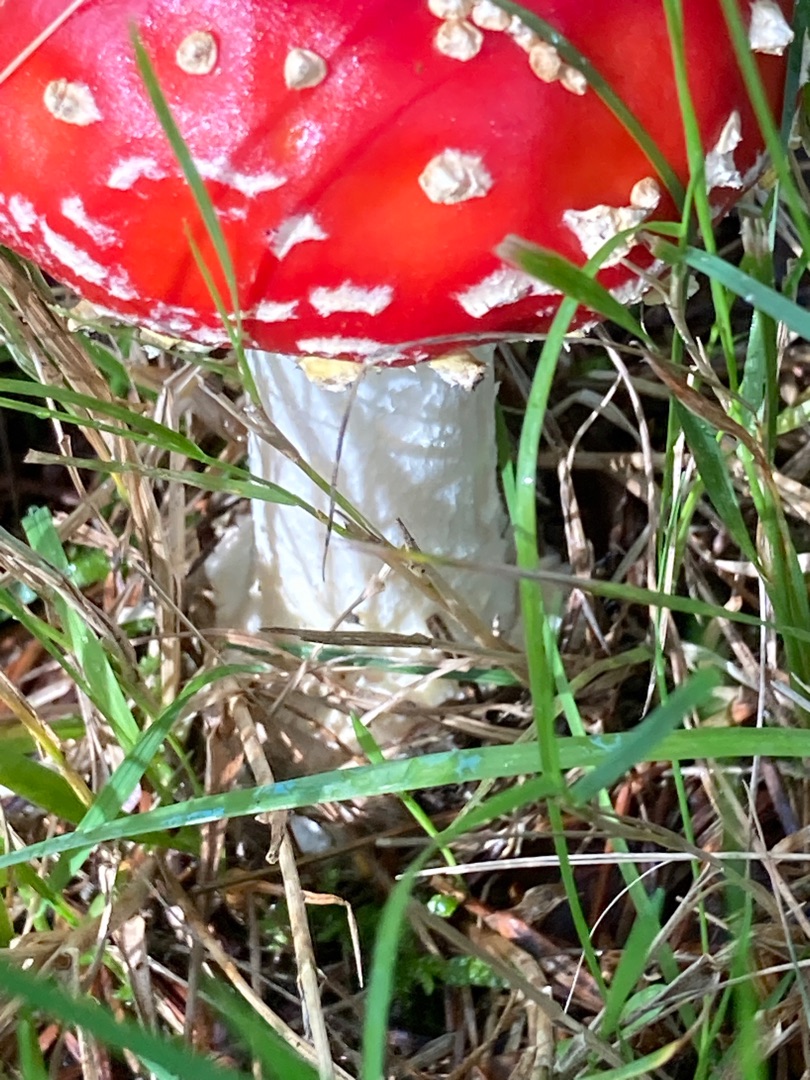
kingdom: Fungi
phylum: Basidiomycota
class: Agaricomycetes
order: Agaricales
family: Amanitaceae
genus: Amanita
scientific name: Amanita muscaria
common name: Rød fluesvamp
